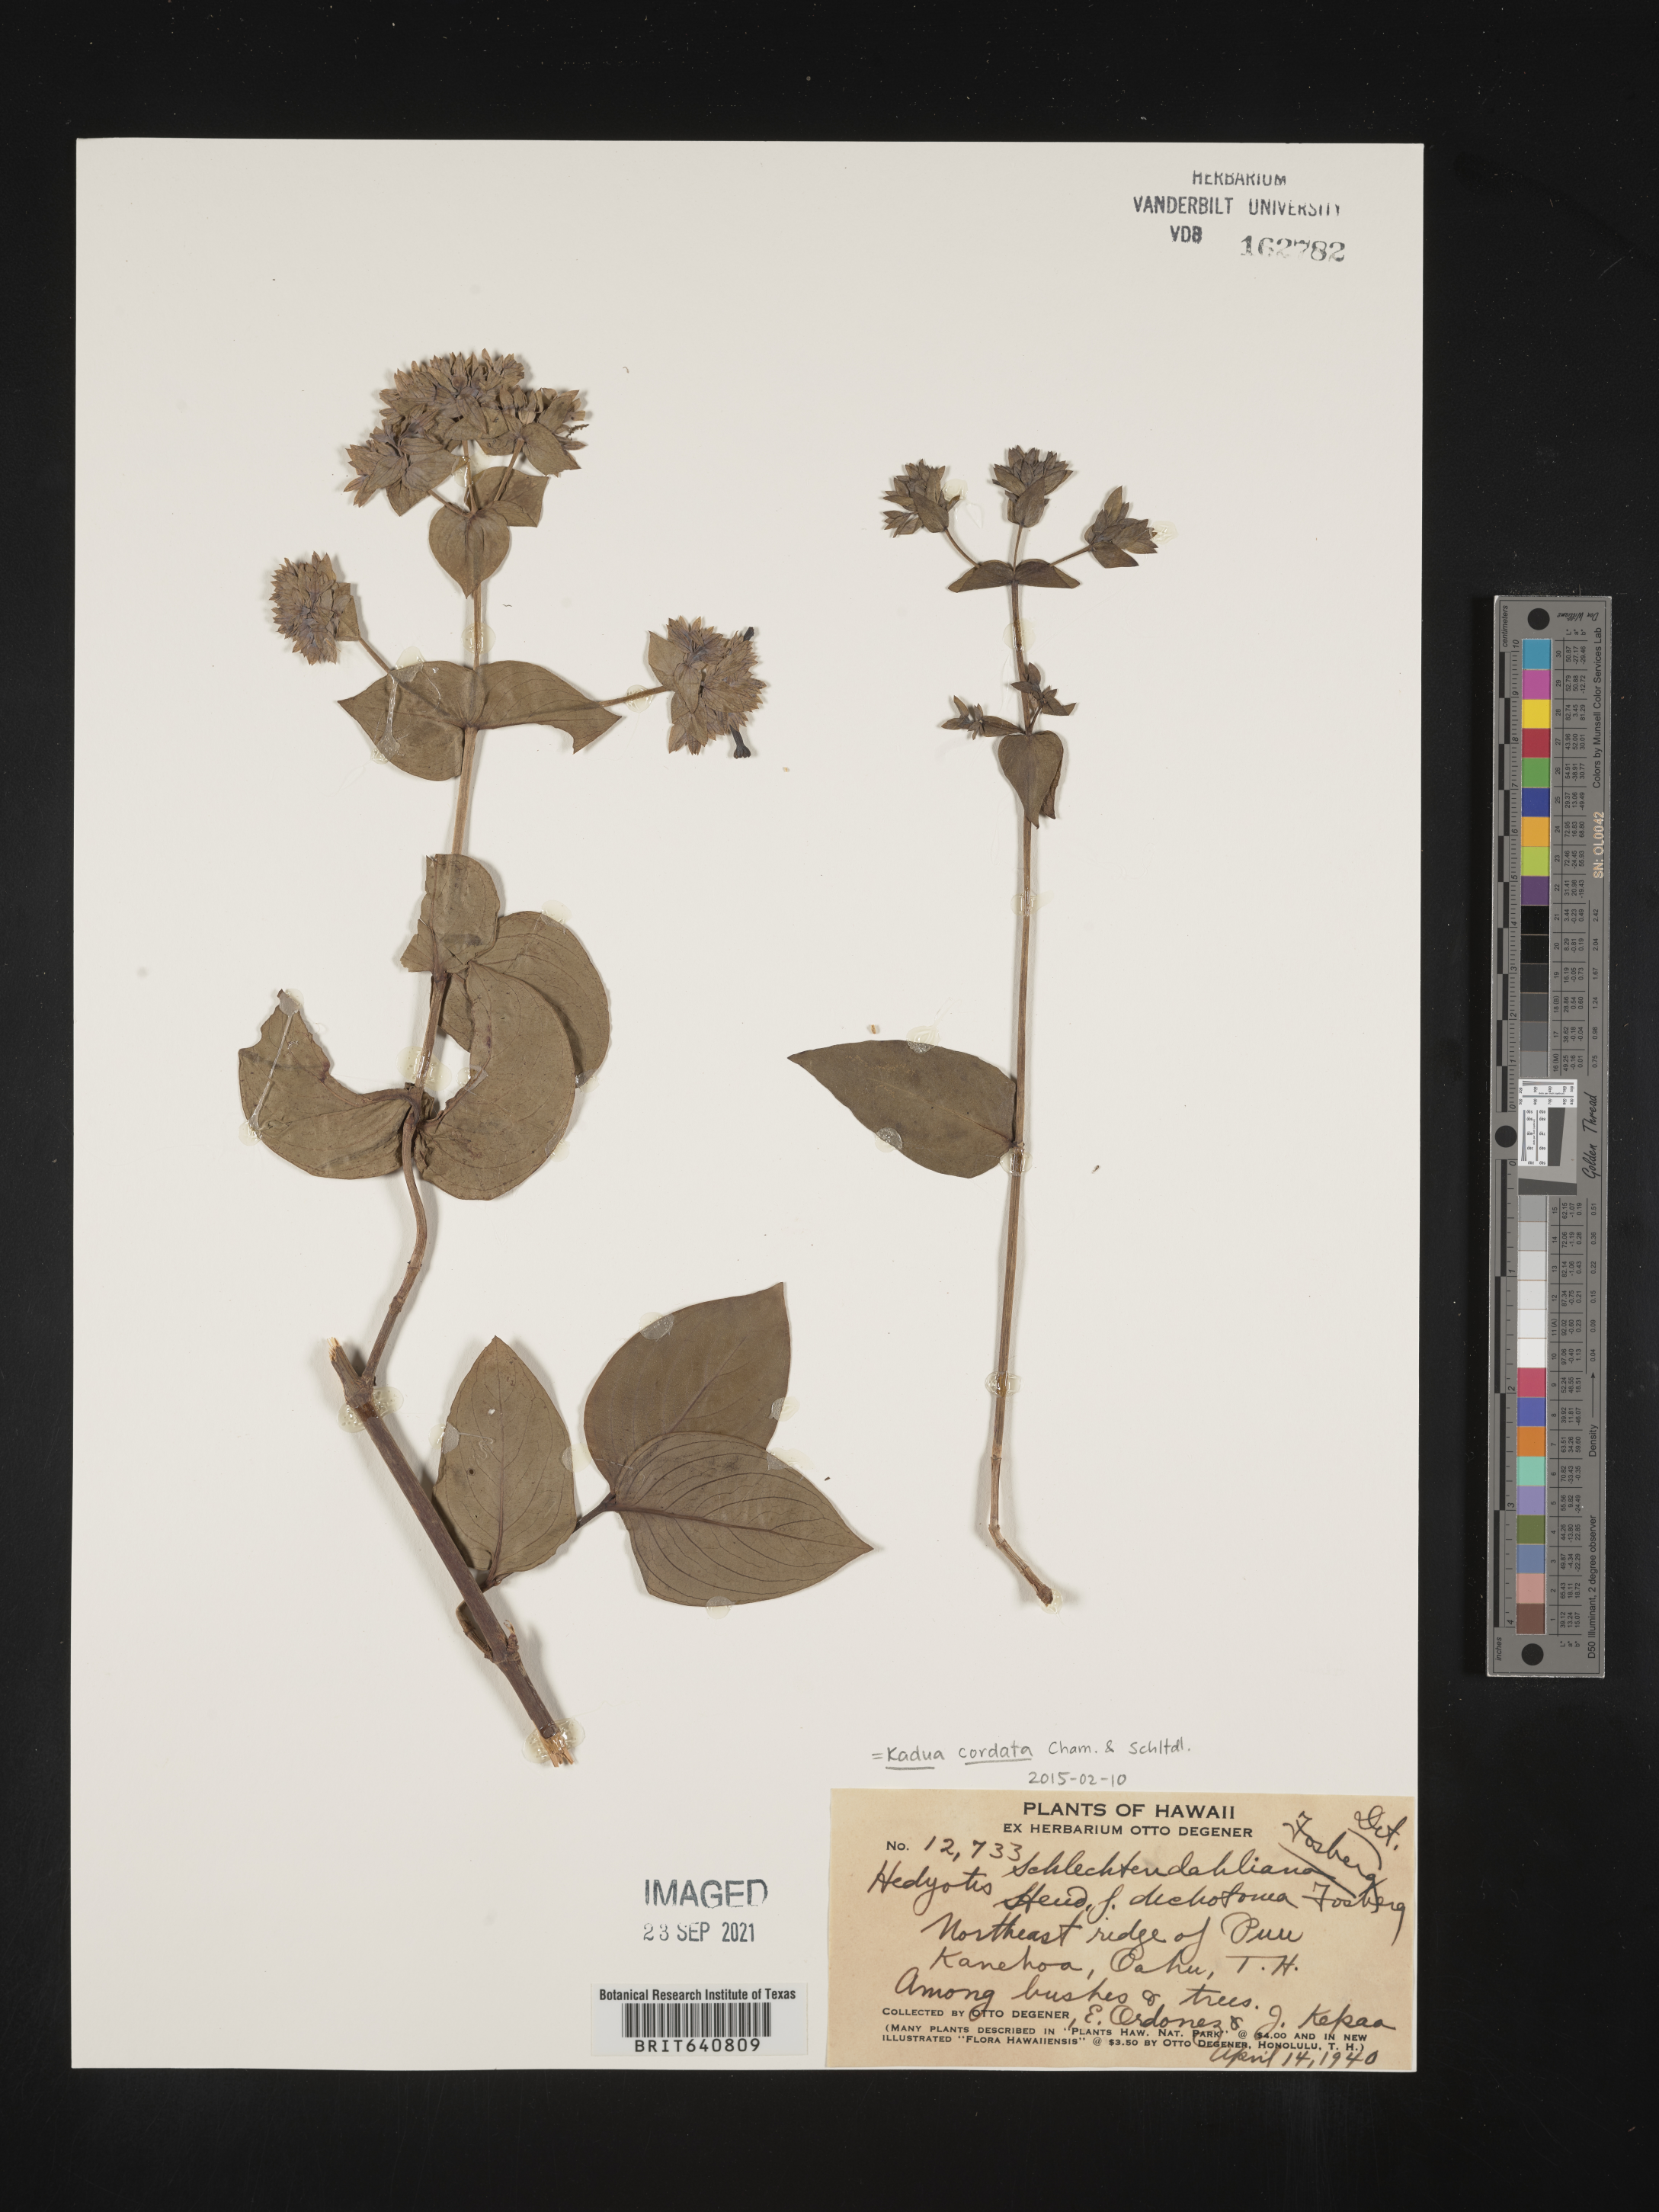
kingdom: Plantae
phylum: Tracheophyta
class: Magnoliopsida
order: Gentianales
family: Rubiaceae
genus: Kadua
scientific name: Kadua
